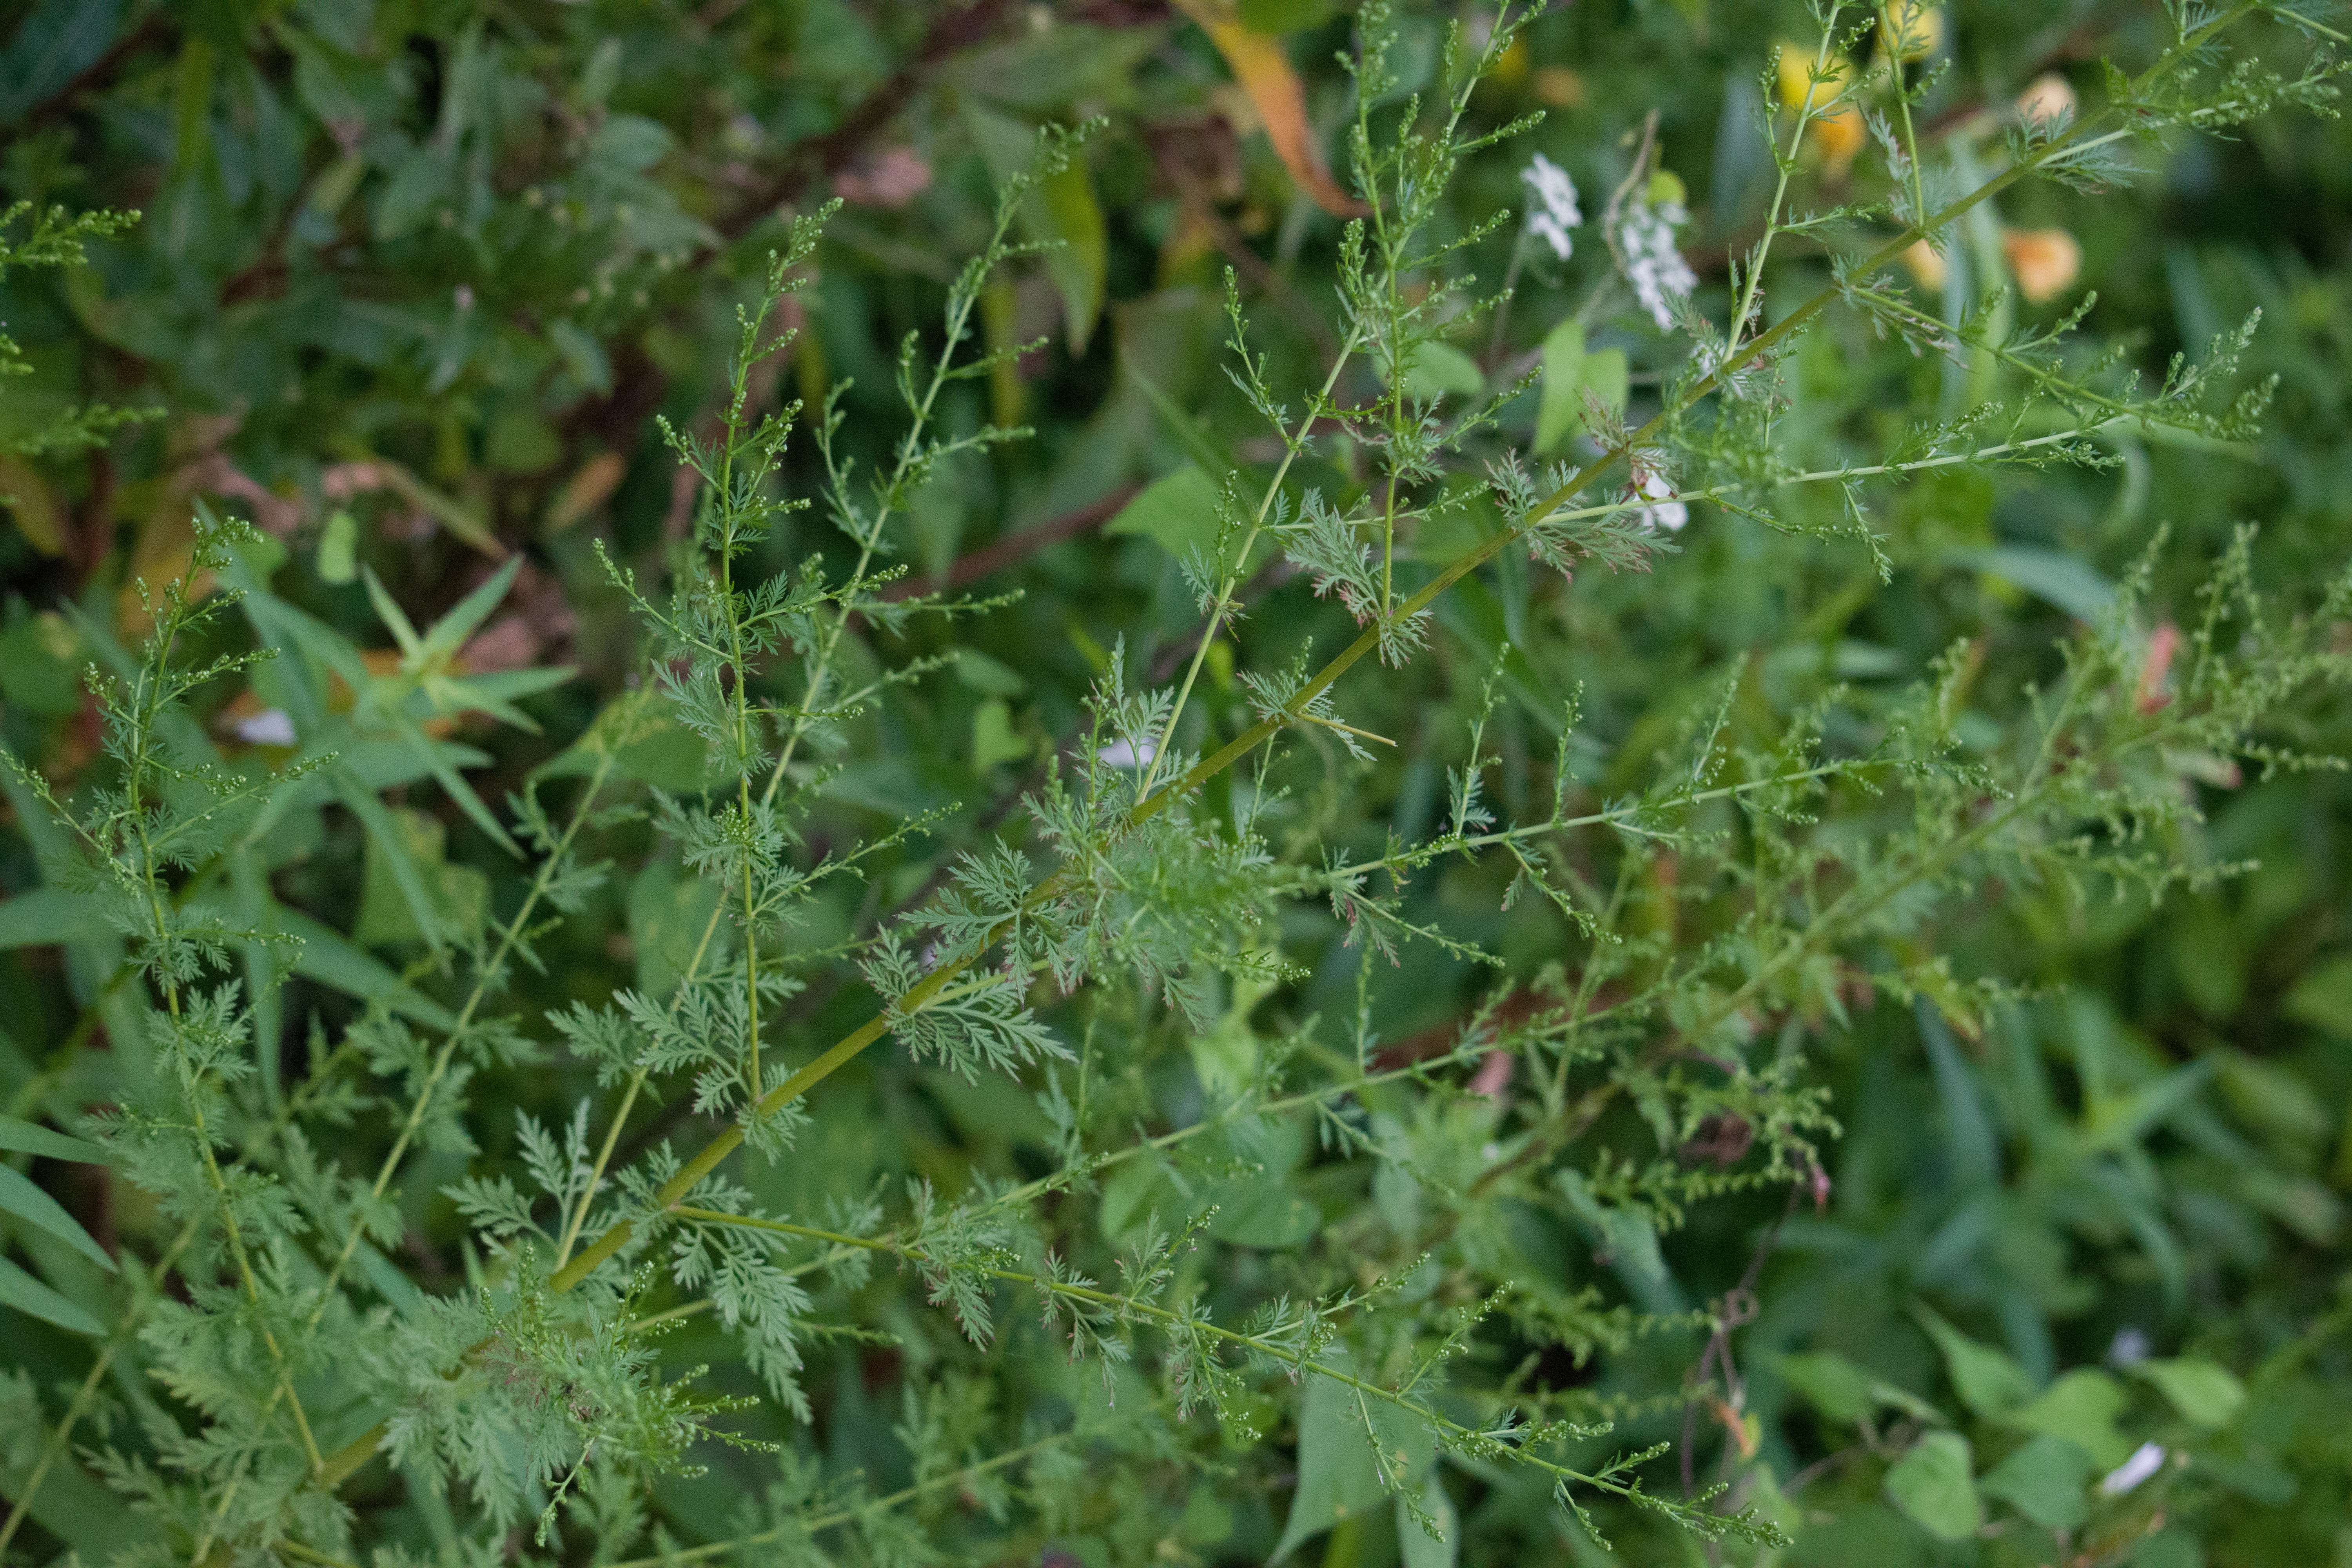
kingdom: Plantae
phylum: Tracheophyta
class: Magnoliopsida
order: Asterales
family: Asteraceae
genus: Artemisia
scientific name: Artemisia annua
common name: Mugwort
